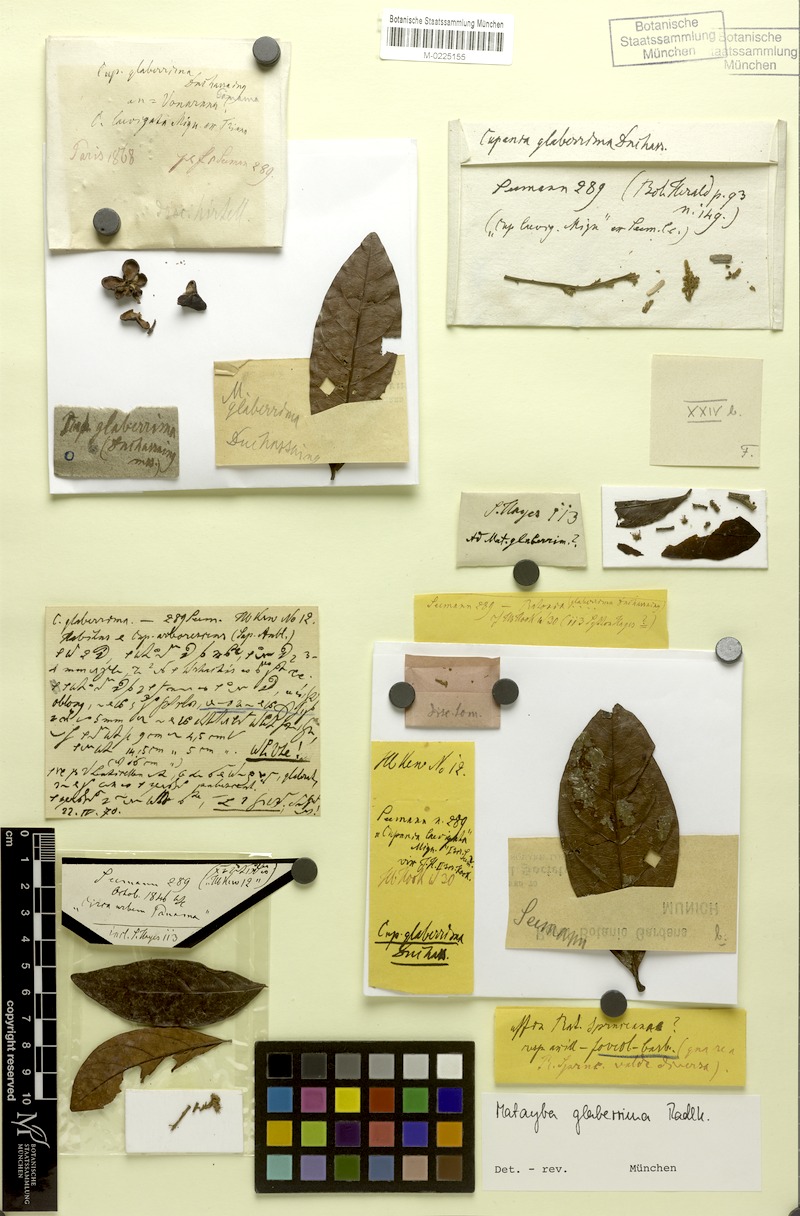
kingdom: Plantae
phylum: Tracheophyta
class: Magnoliopsida
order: Sapindales
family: Sapindaceae
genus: Matayba
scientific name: Matayba glaberrima
